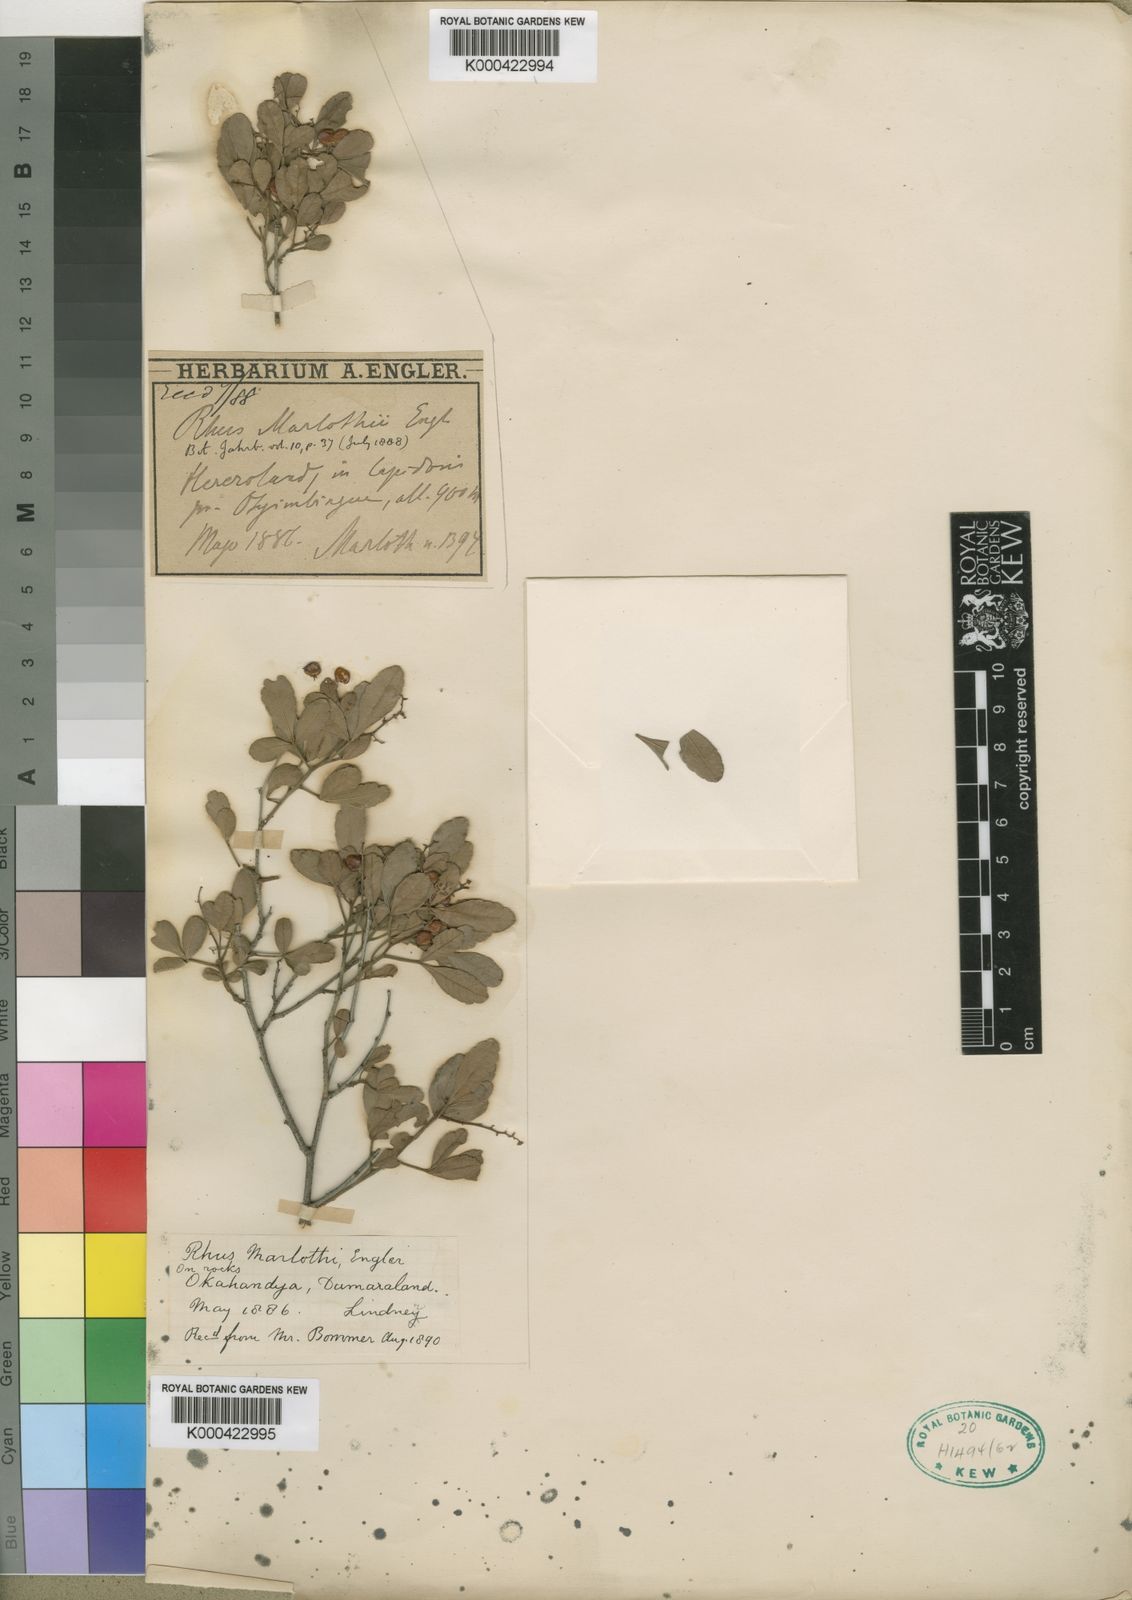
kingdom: Plantae
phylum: Tracheophyta
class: Magnoliopsida
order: Sapindales
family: Anacardiaceae
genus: Searsia
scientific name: Searsia marlothii
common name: Bitter karee
